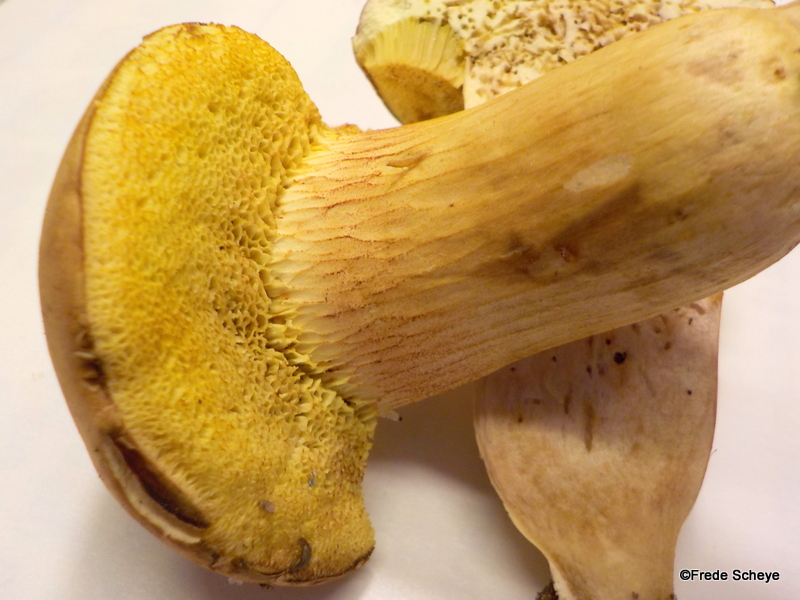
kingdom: Fungi
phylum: Basidiomycota
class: Agaricomycetes
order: Boletales
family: Boletaceae
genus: Xerocomus
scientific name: Xerocomus
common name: filtrørhat
